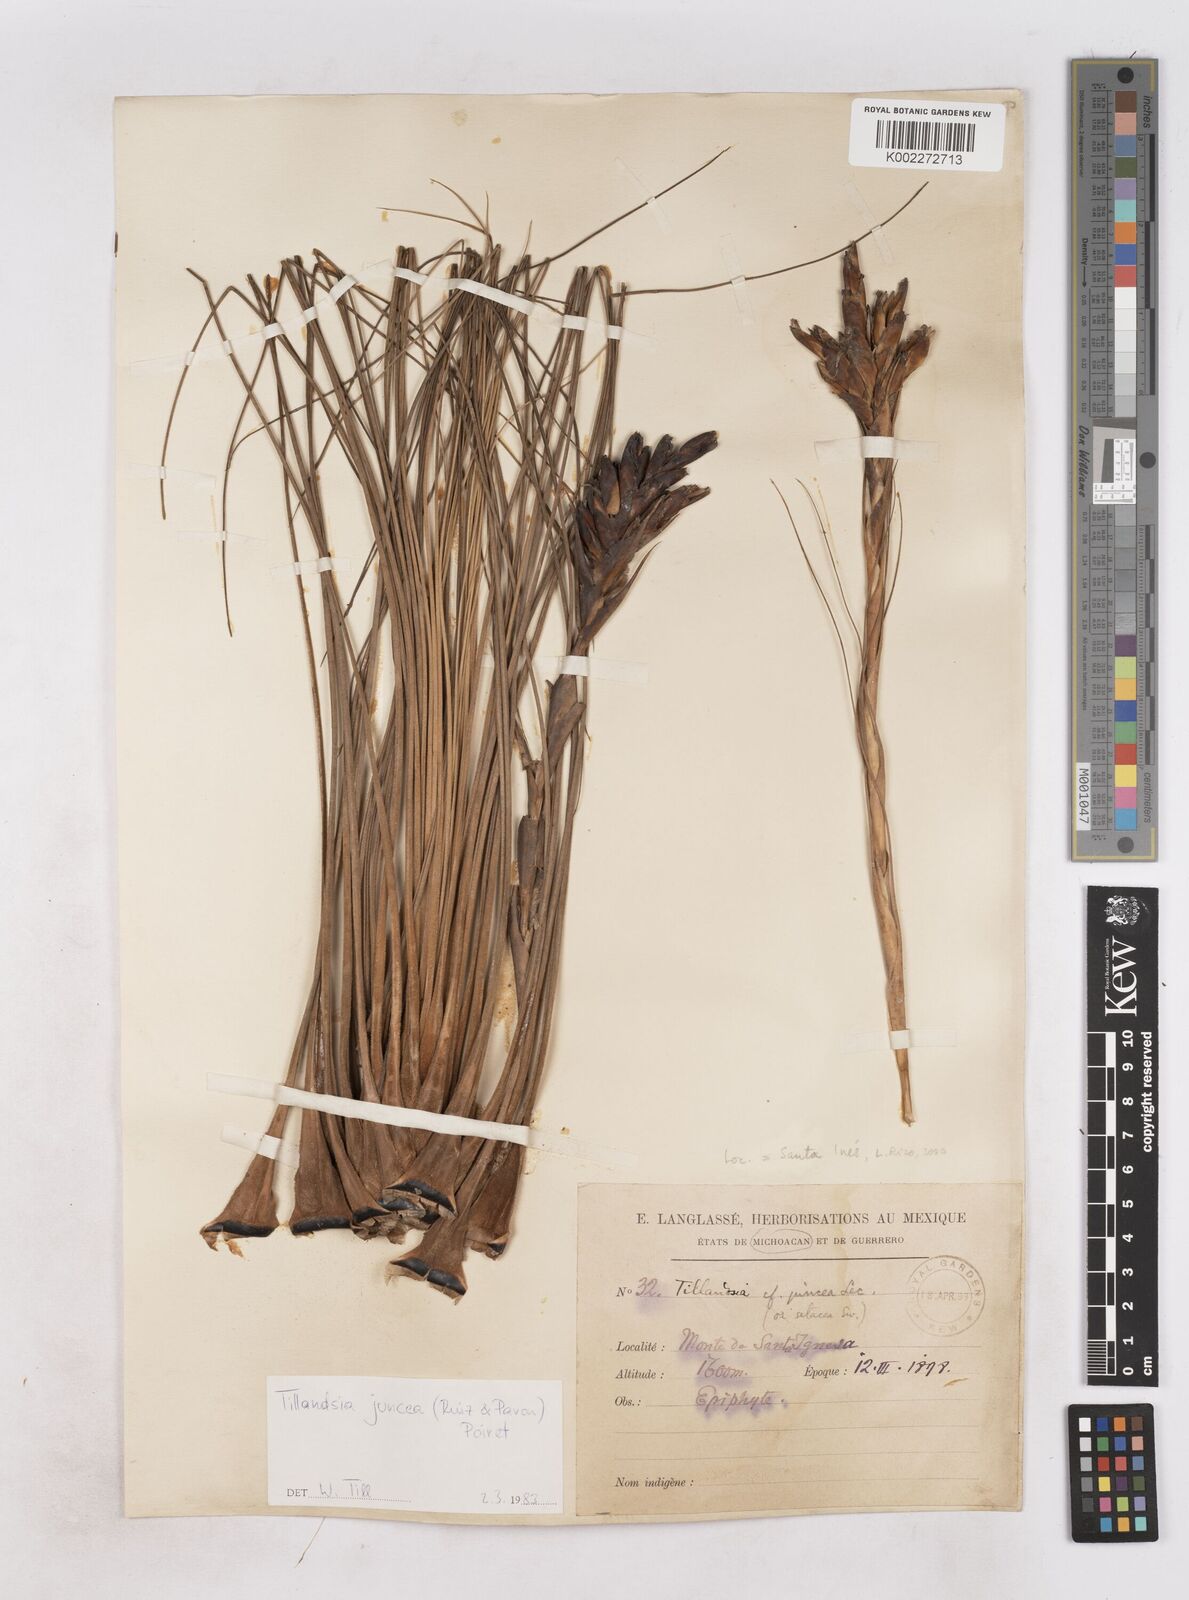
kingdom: Plantae
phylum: Tracheophyta
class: Liliopsida
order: Poales
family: Bromeliaceae
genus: Tillandsia
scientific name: Tillandsia juncea
